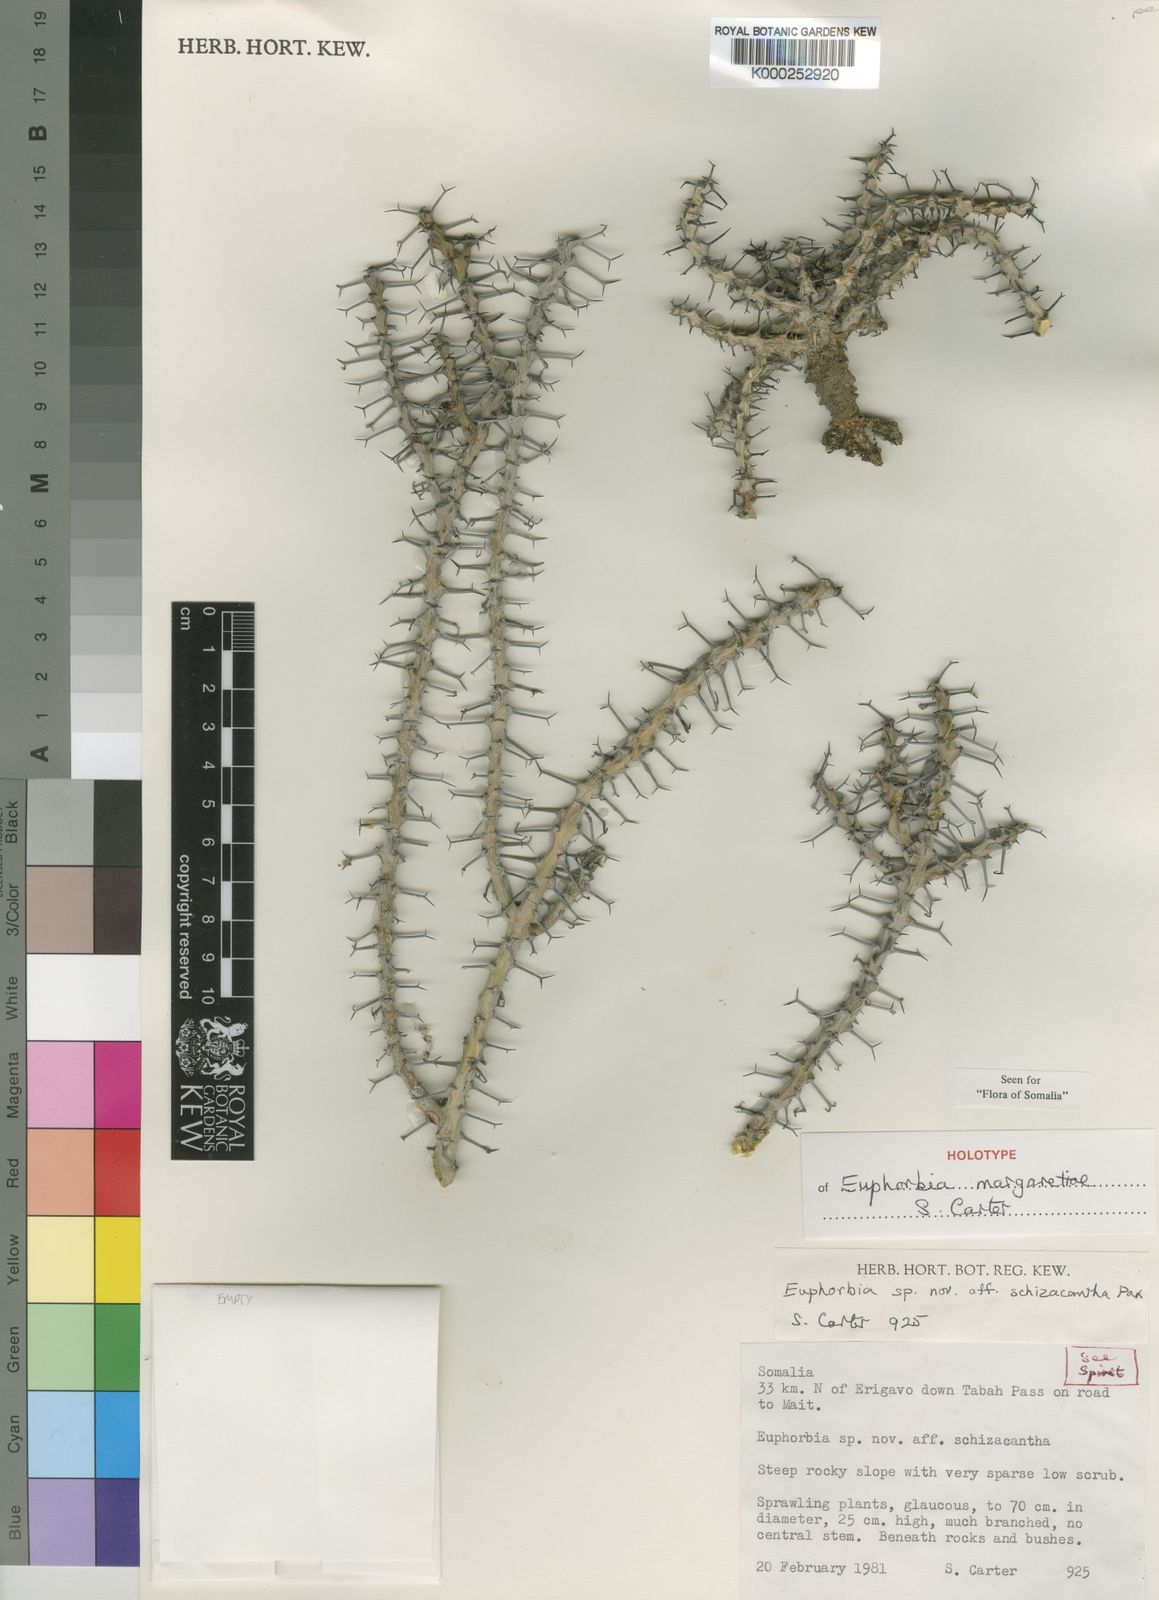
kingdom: Plantae
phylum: Tracheophyta
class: Magnoliopsida
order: Malpighiales
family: Euphorbiaceae
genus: Euphorbia
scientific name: Euphorbia margaretae
